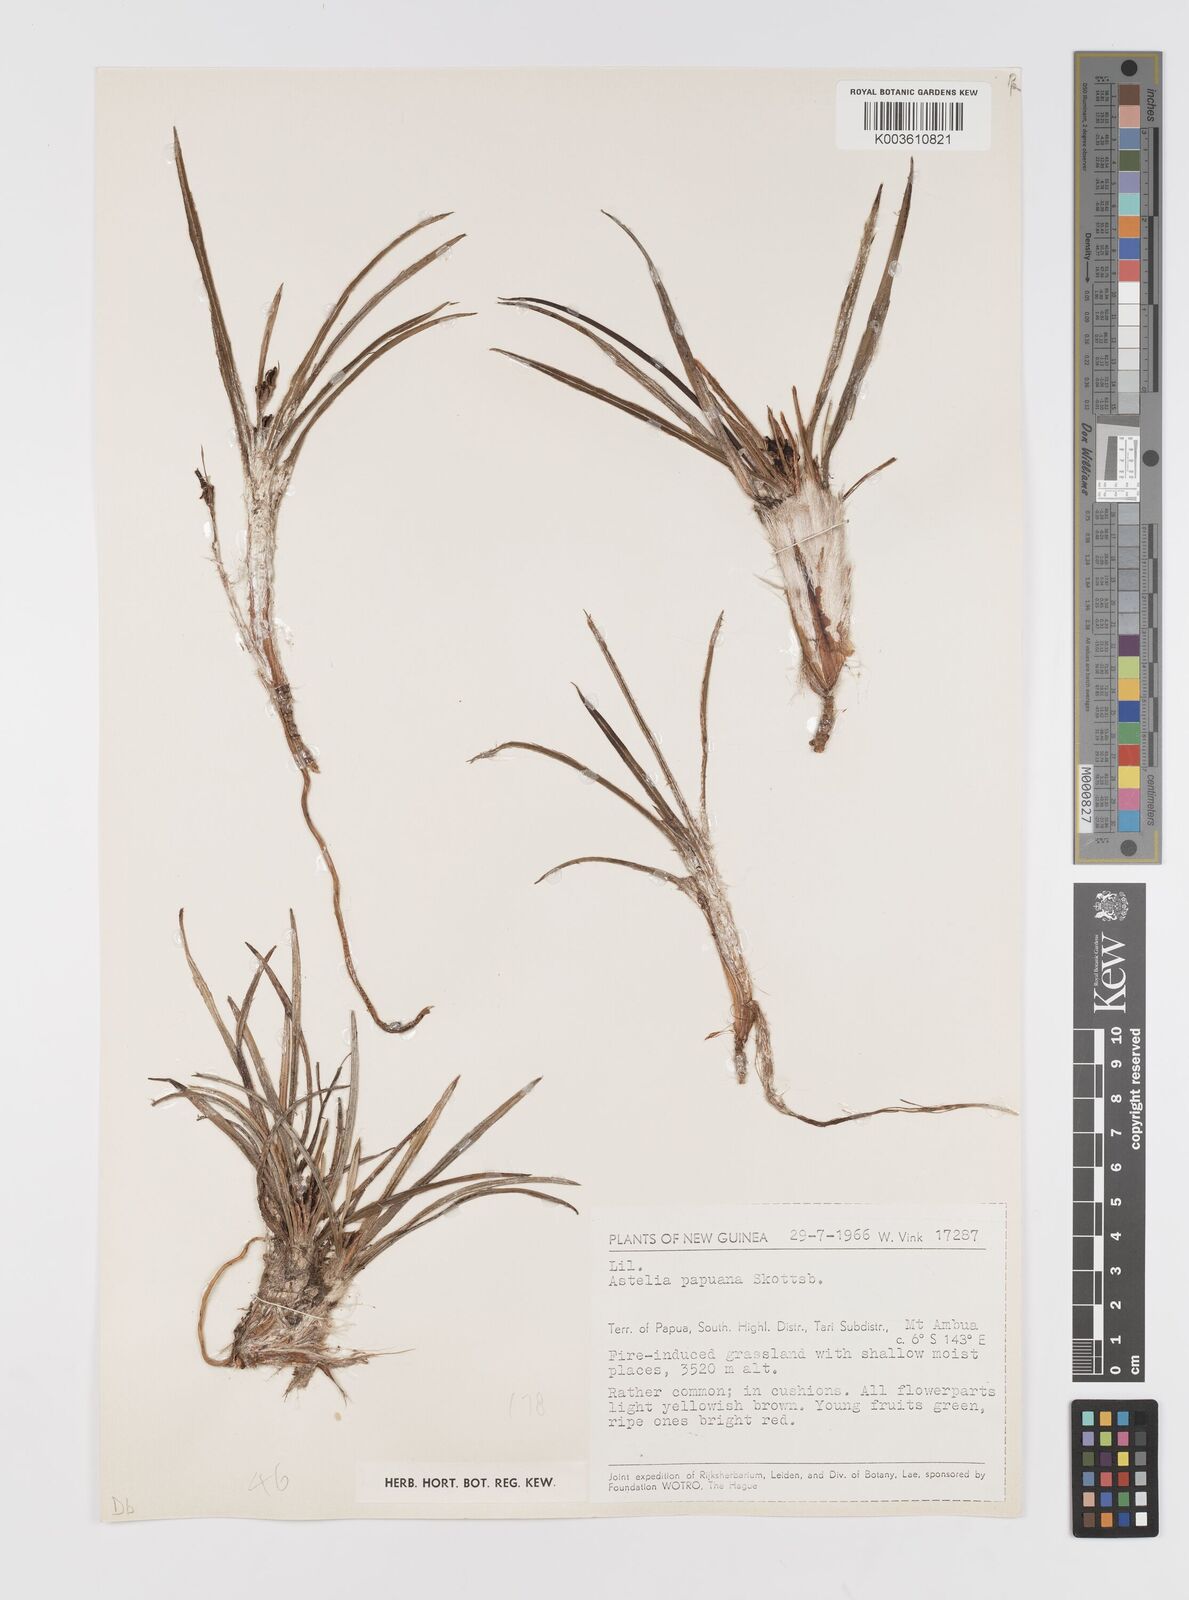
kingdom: Plantae
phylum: Tracheophyta
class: Liliopsida
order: Asparagales
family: Asteliaceae
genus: Astelia
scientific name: Astelia papuana
